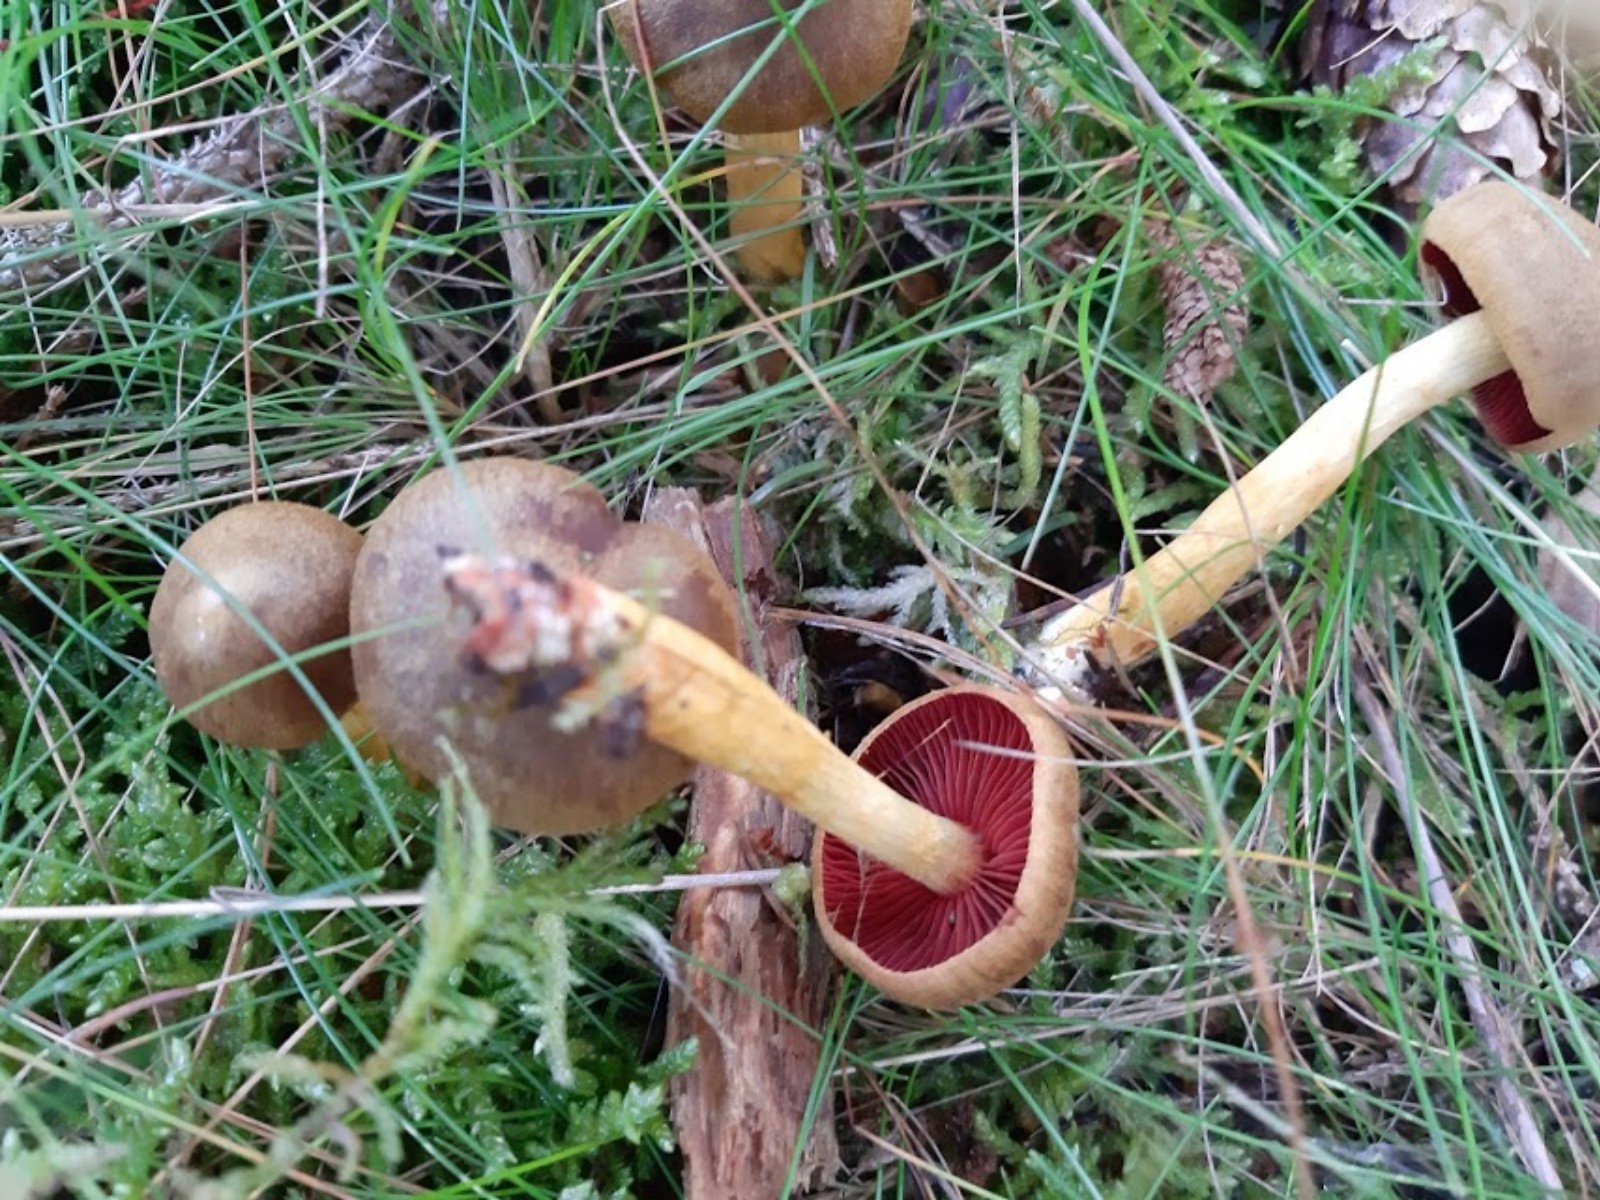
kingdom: Fungi
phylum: Basidiomycota
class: Agaricomycetes
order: Agaricales
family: Cortinariaceae
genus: Cortinarius
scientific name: Cortinarius
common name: cinnoberbladet slørhat
